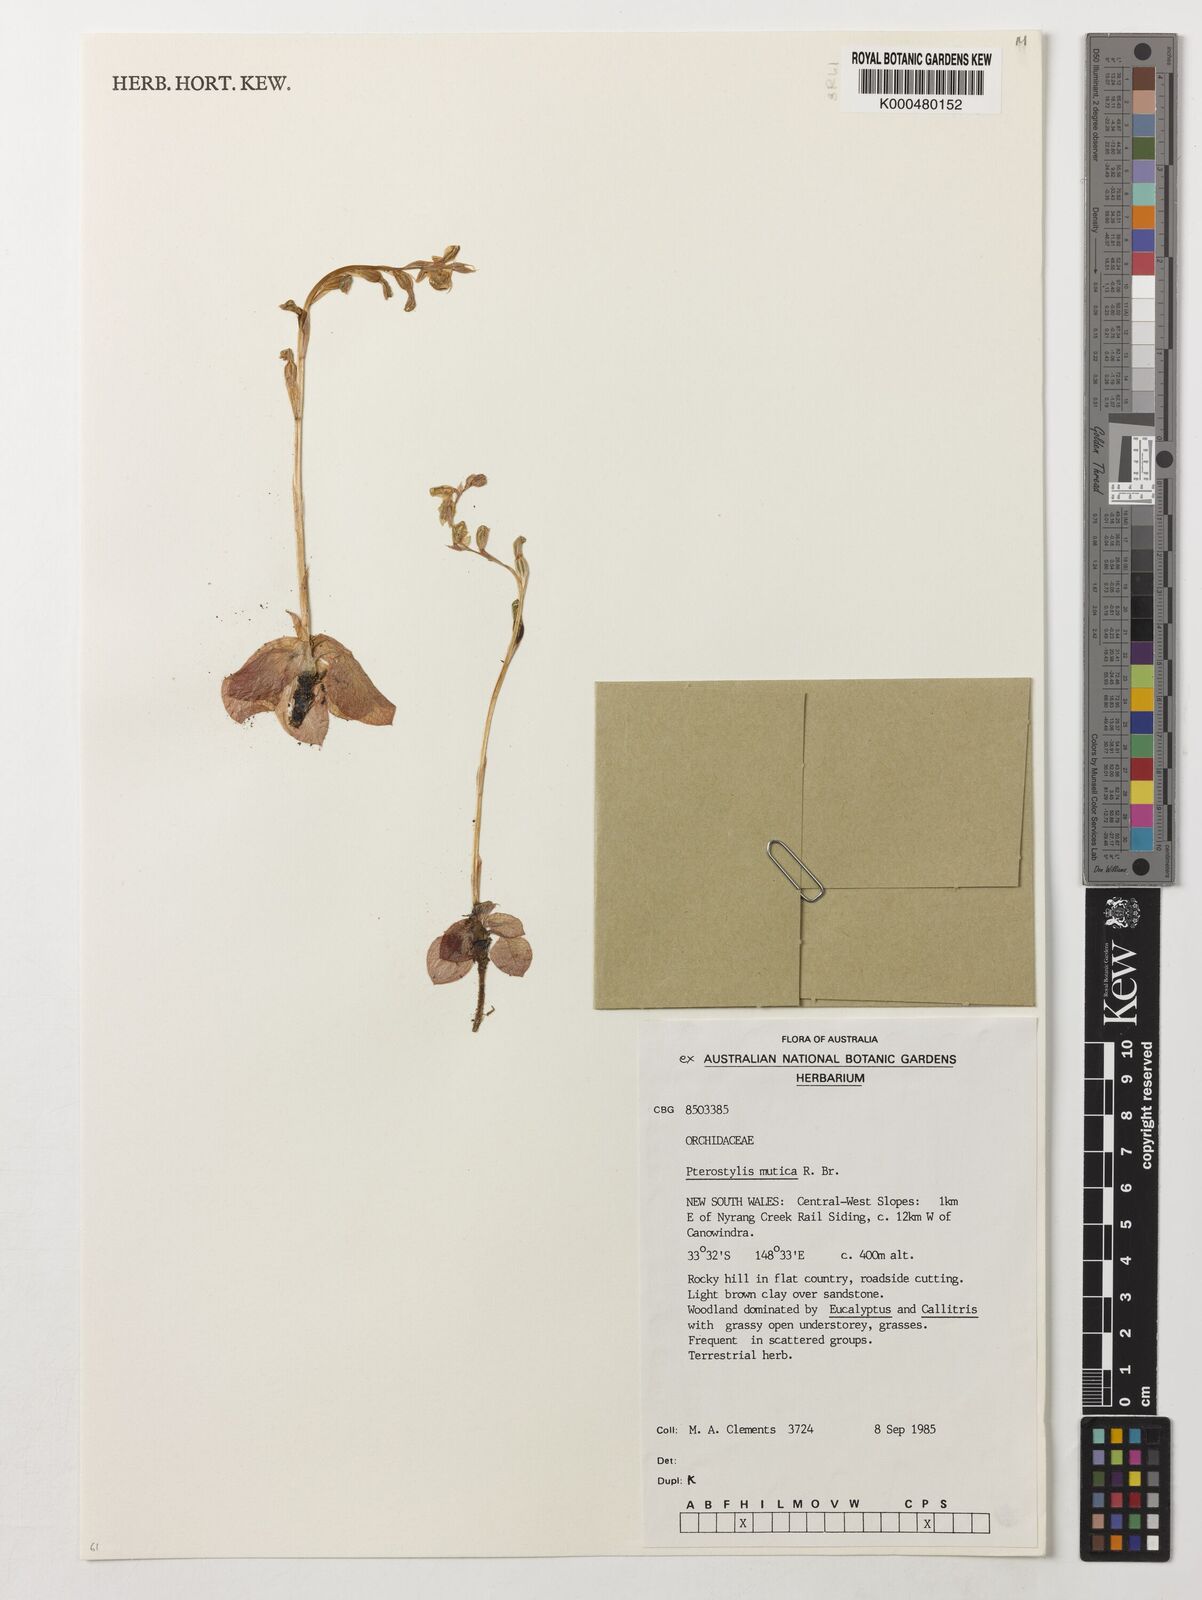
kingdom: Plantae
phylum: Tracheophyta
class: Liliopsida
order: Asparagales
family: Orchidaceae
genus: Pterostylis
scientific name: Pterostylis mutica
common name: Midget greenhood
